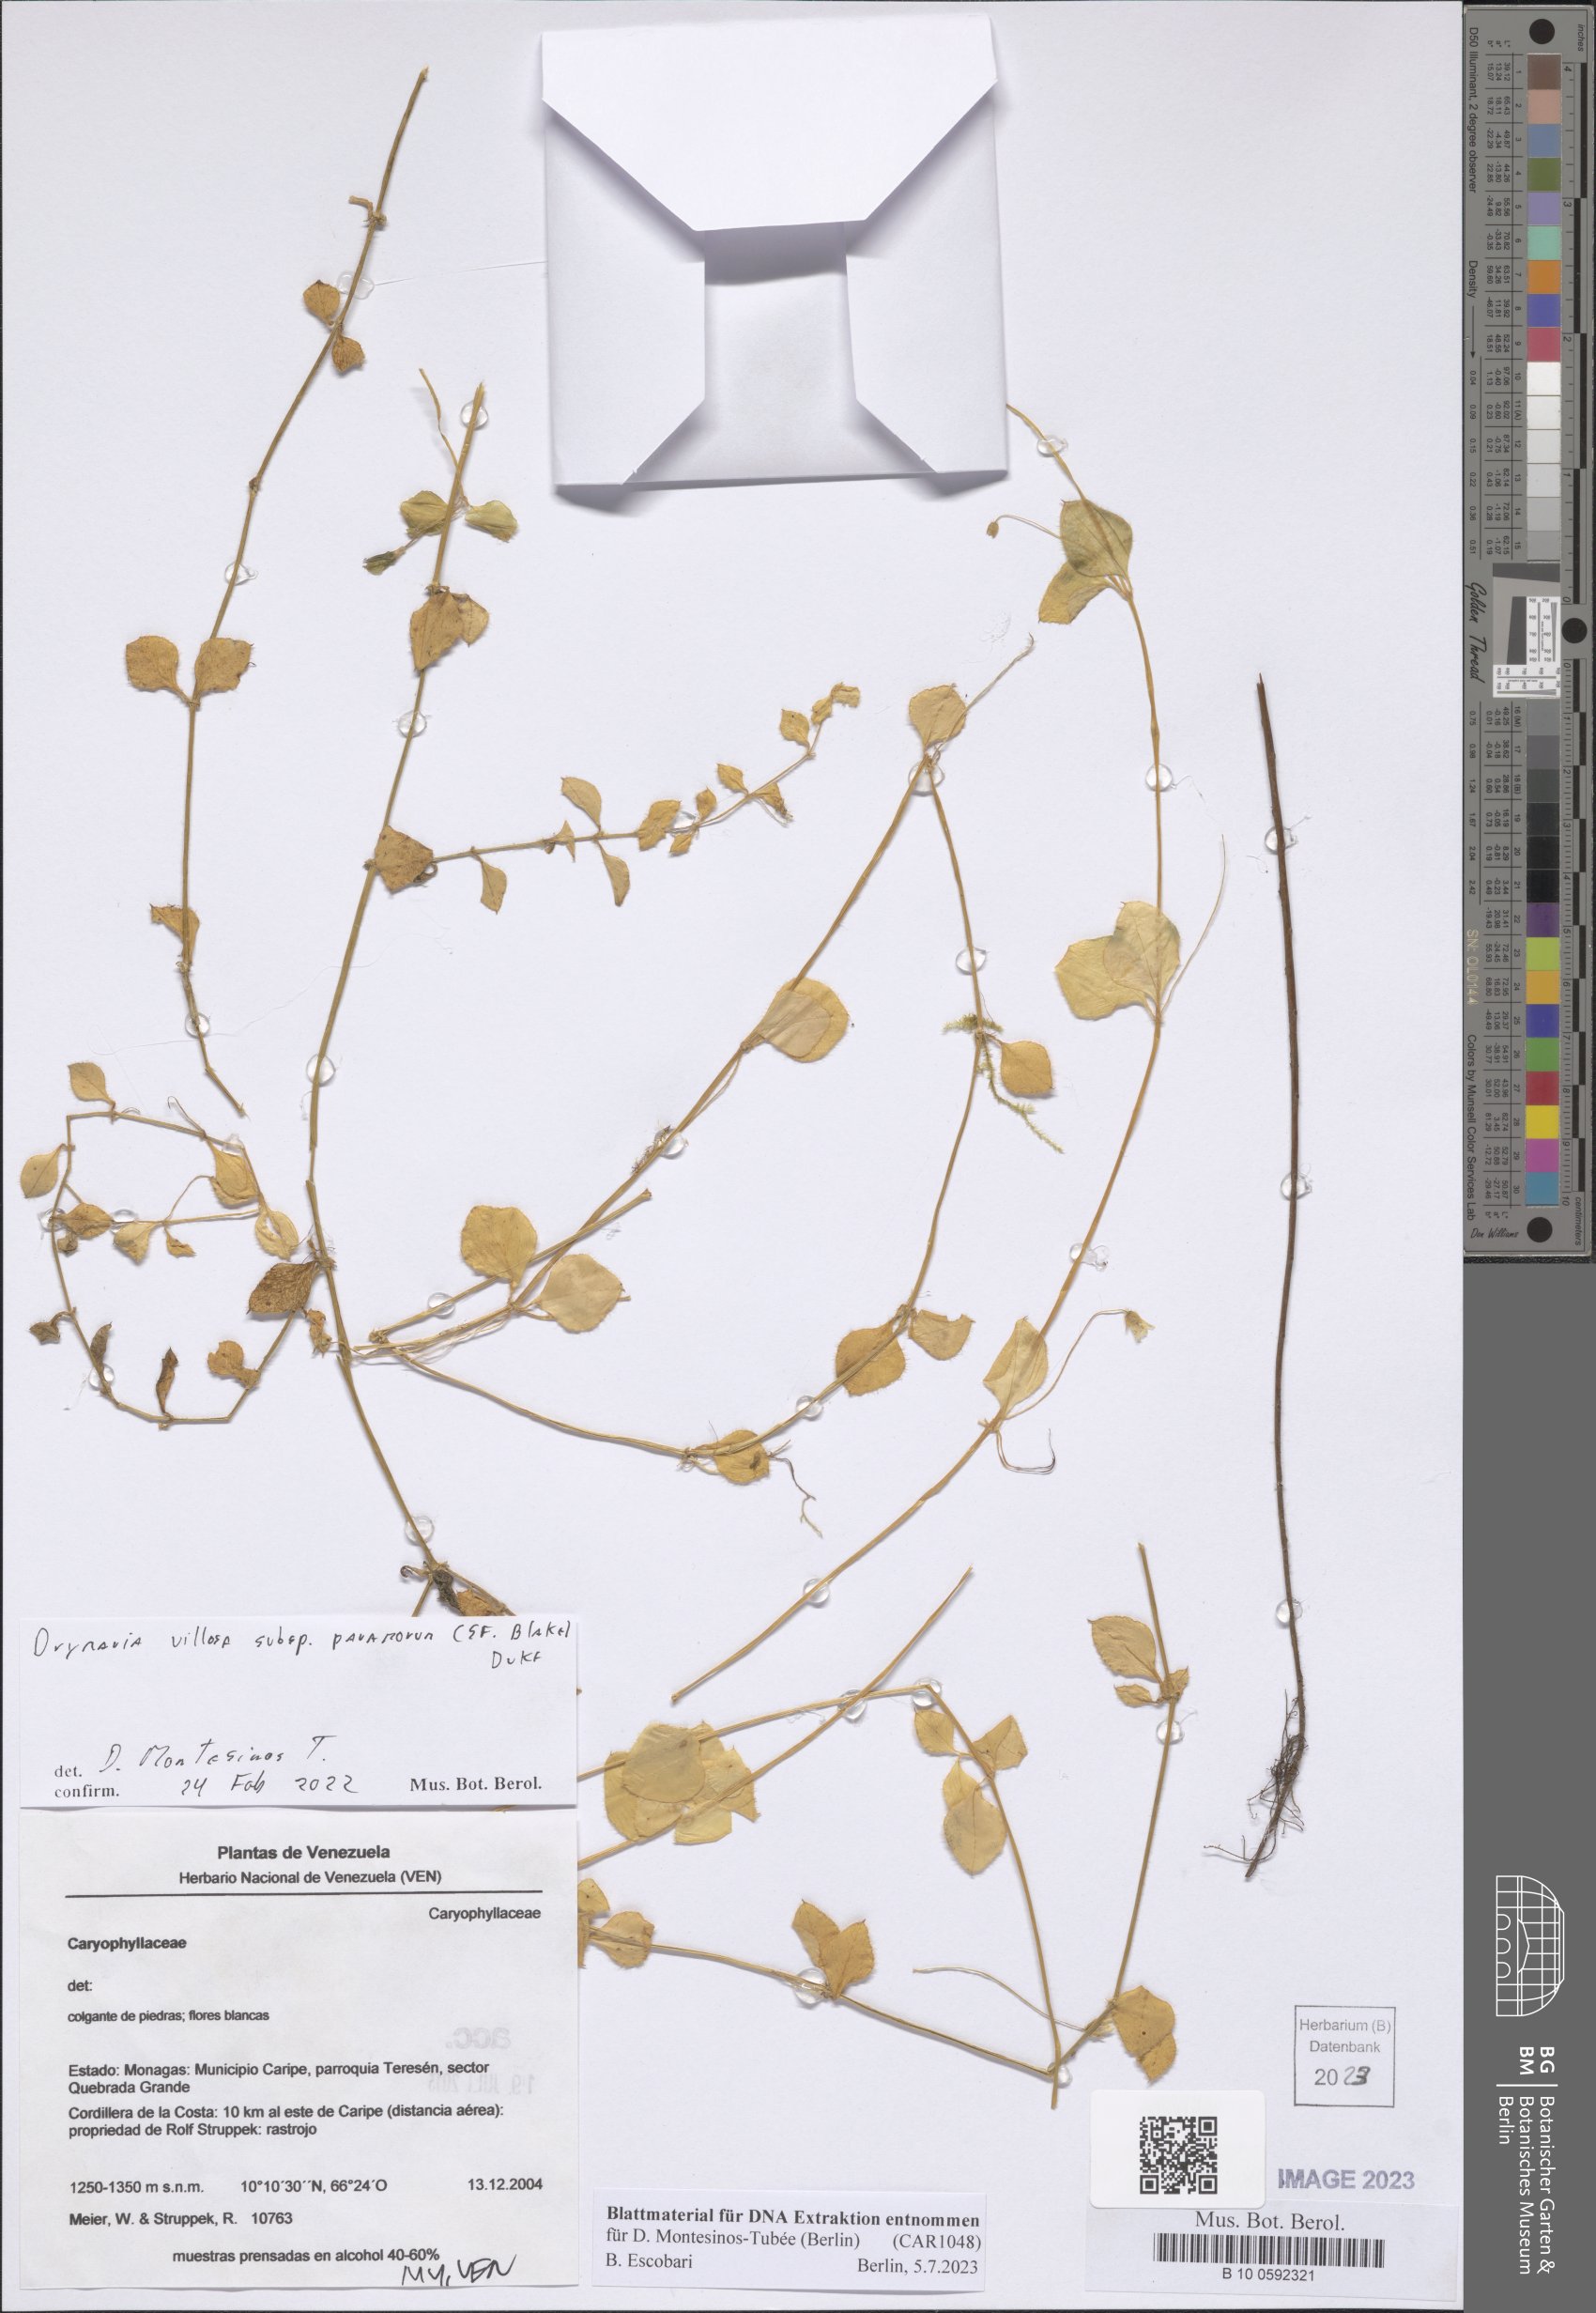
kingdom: Plantae
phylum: Tracheophyta
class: Magnoliopsida
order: Caryophyllales
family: Caryophyllaceae
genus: Drymaria
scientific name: Drymaria villosa
